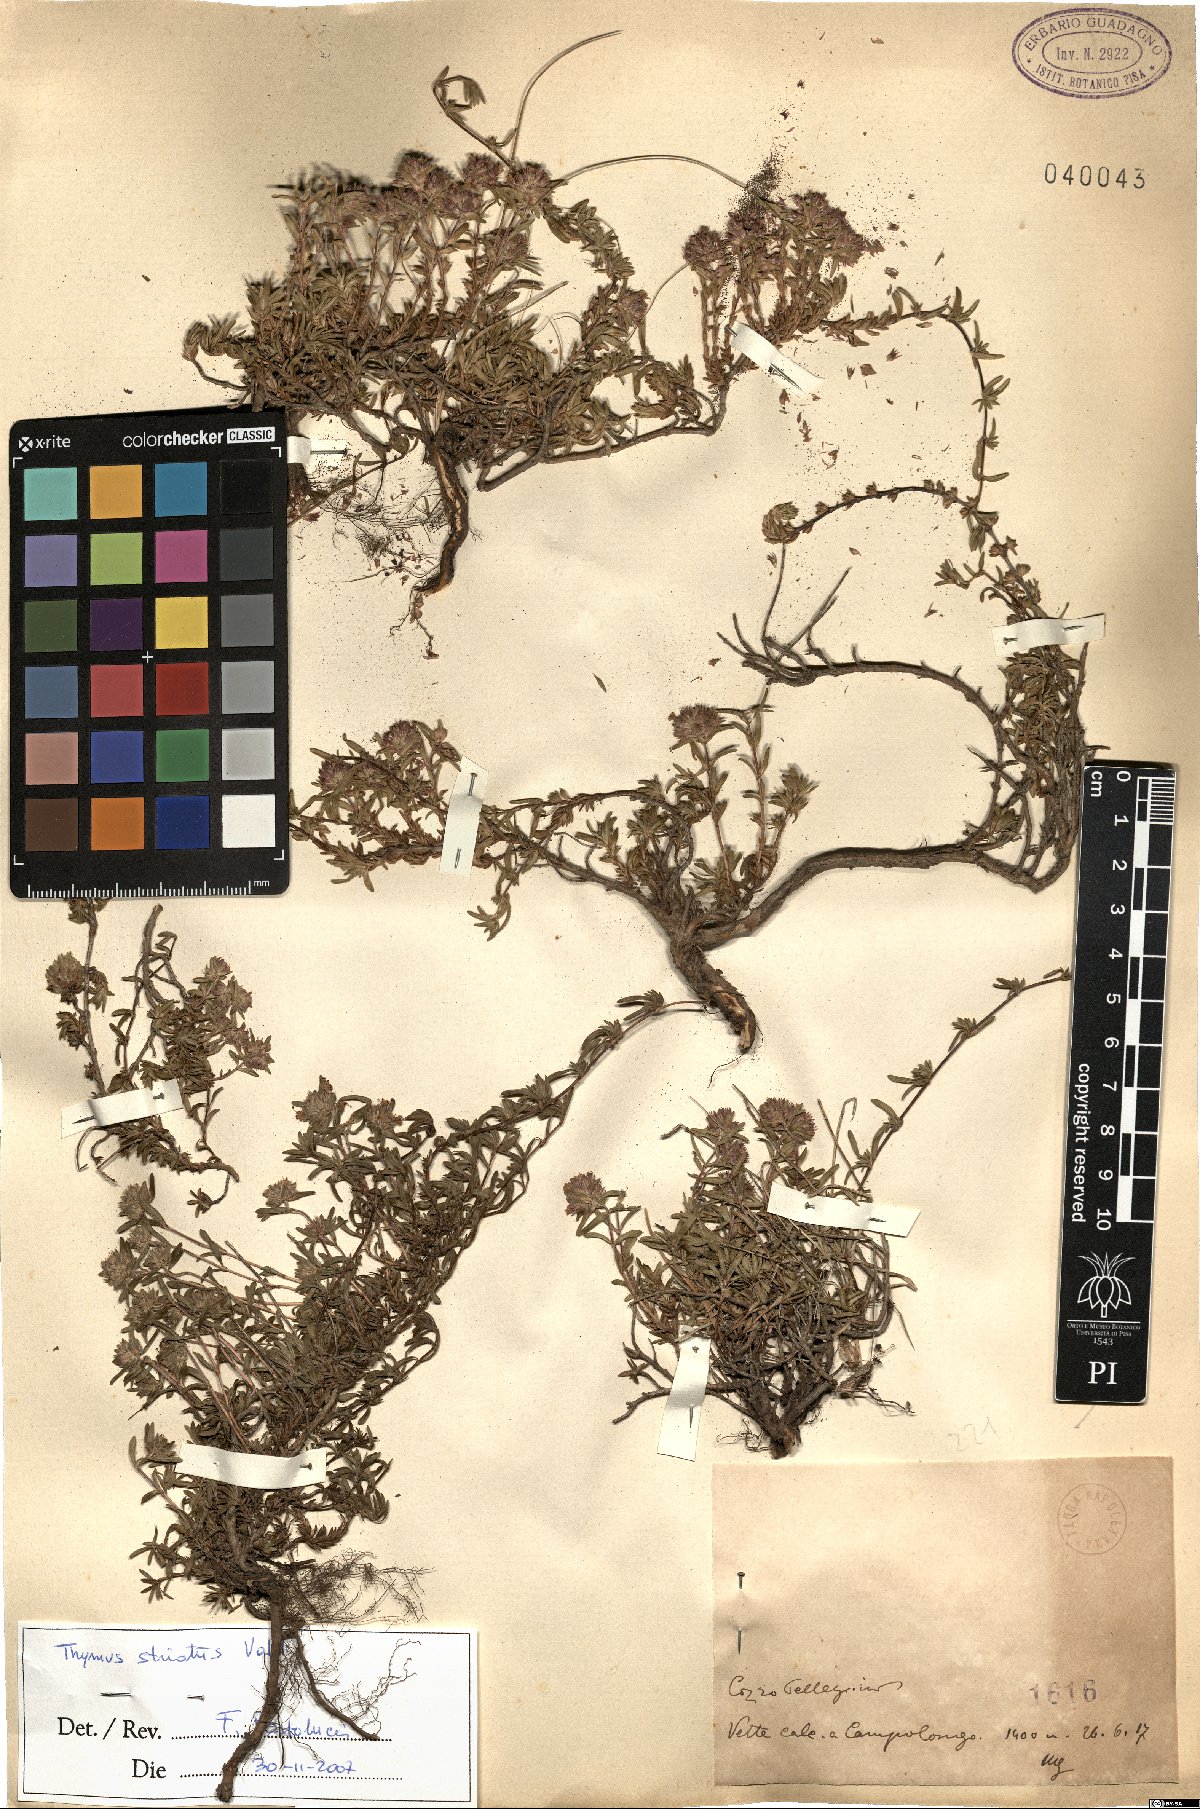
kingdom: Plantae
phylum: Tracheophyta
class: Magnoliopsida
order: Lamiales
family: Lamiaceae
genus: Thymus
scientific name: Thymus striatus
